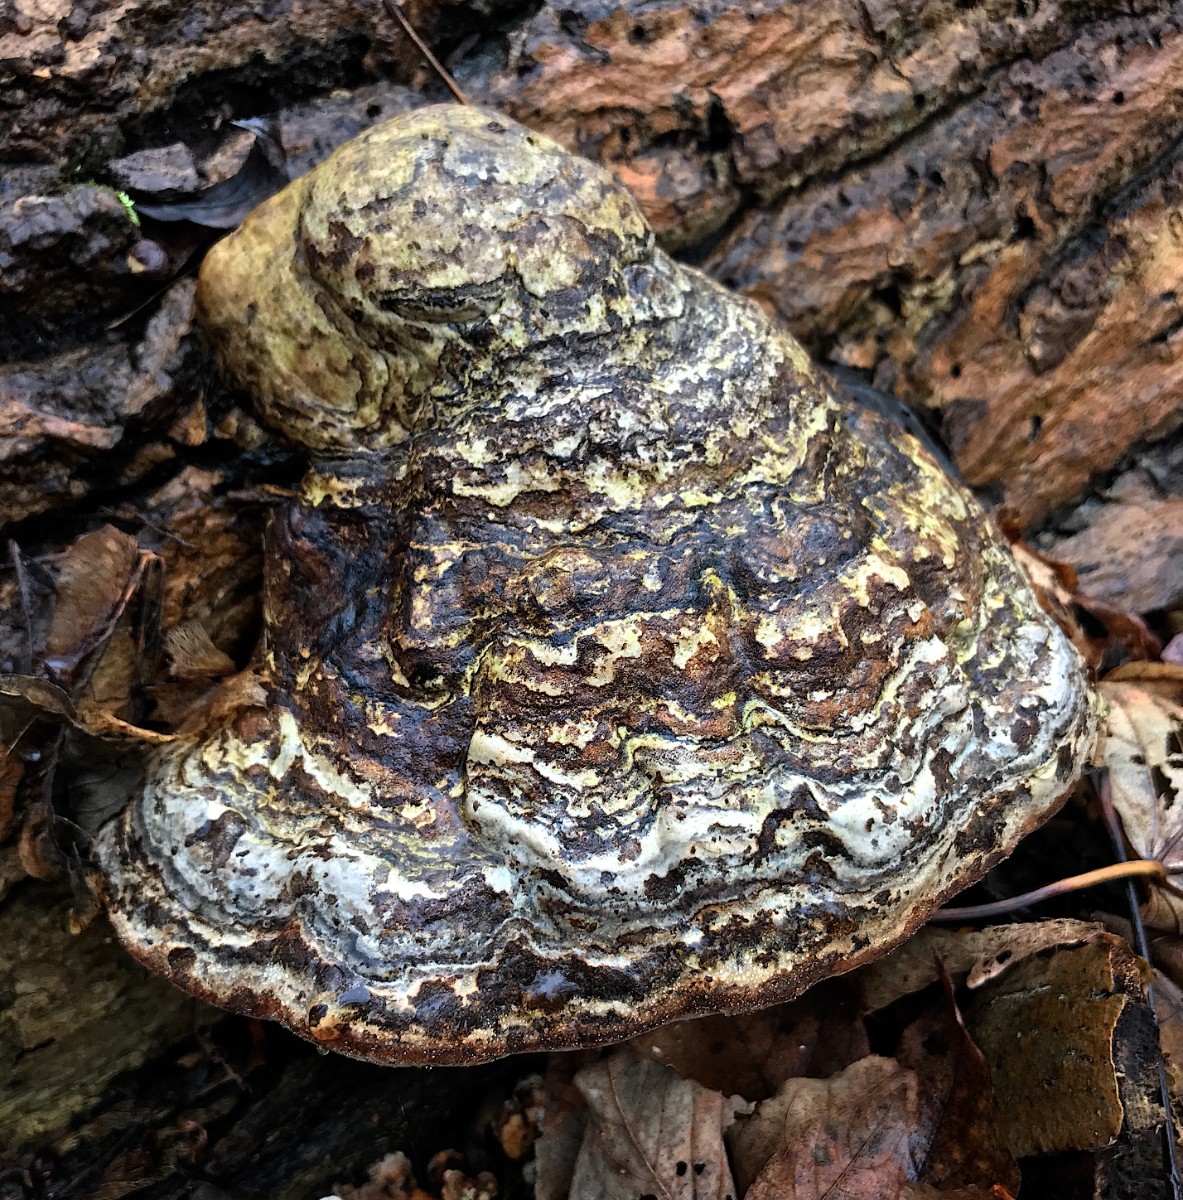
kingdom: Fungi
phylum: Basidiomycota
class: Agaricomycetes
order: Polyporales
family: Polyporaceae
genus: Fomes
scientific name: Fomes fomentarius
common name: tøndersvamp
